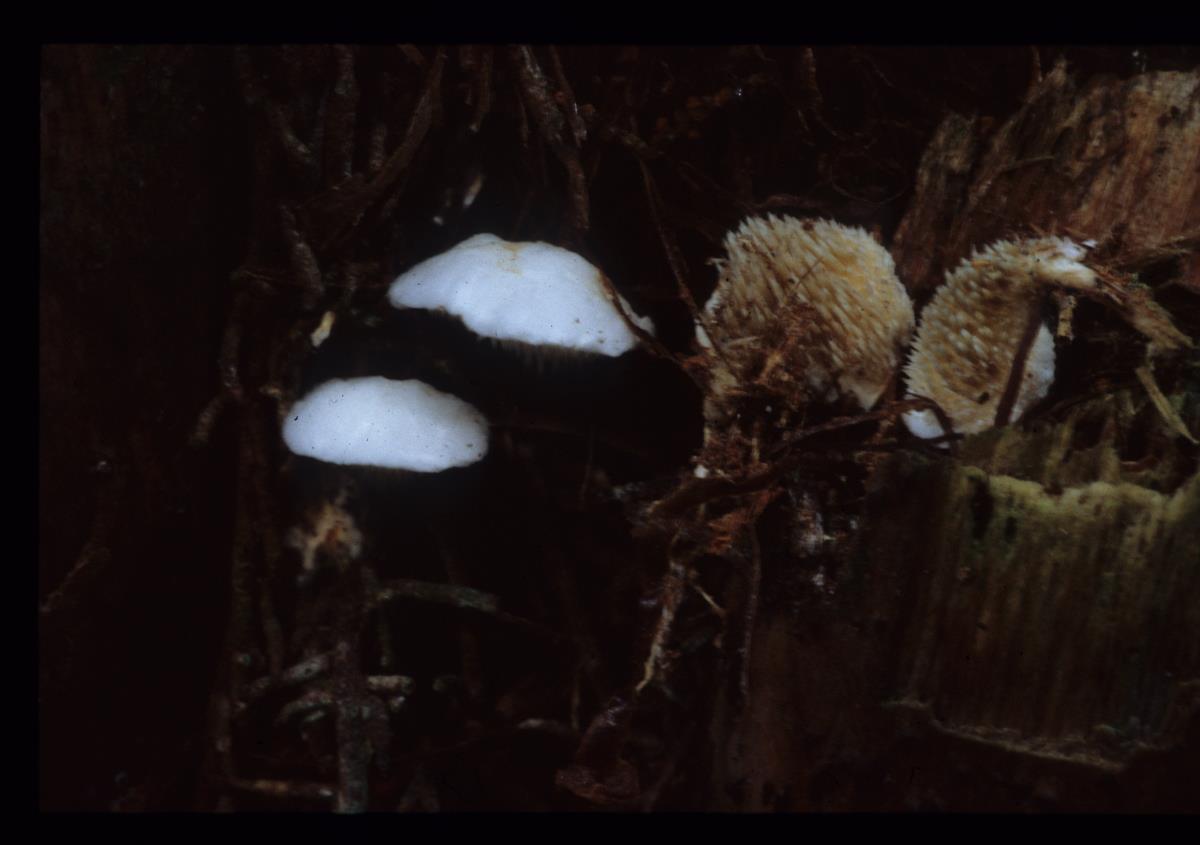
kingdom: Fungi
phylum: Basidiomycota
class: Agaricomycetes
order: Gomphales
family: Clavariadelphaceae
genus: Beenakia
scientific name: Beenakia dacostae
